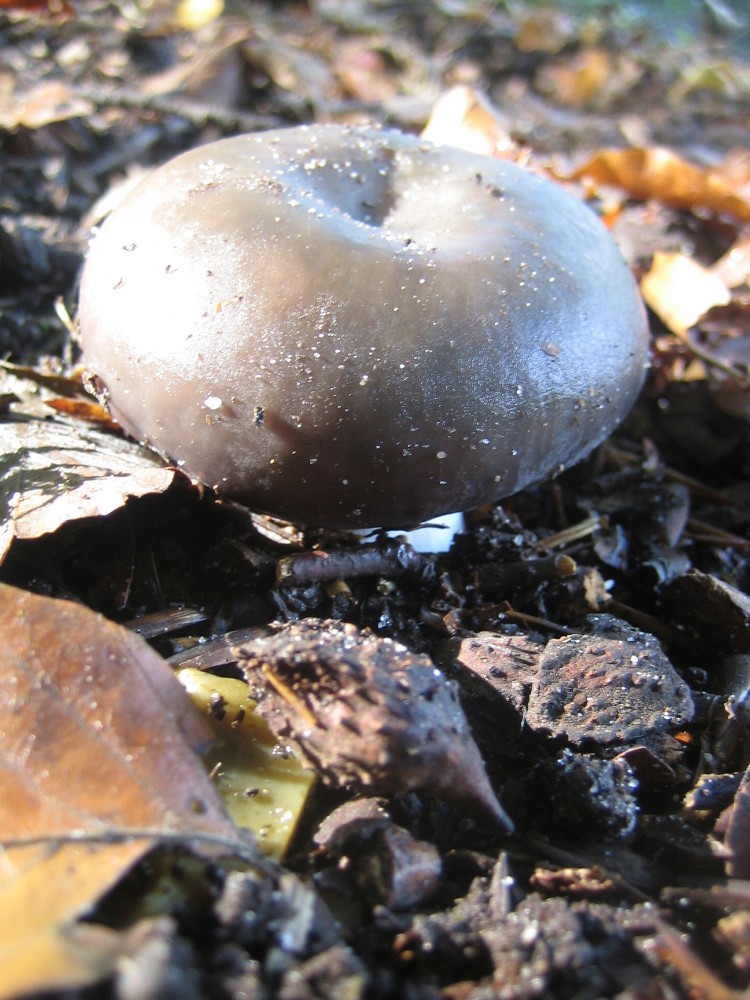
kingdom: Fungi
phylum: Basidiomycota
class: Agaricomycetes
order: Russulales
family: Russulaceae
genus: Russula
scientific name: Russula cyanoxantha
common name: broget skørhat
